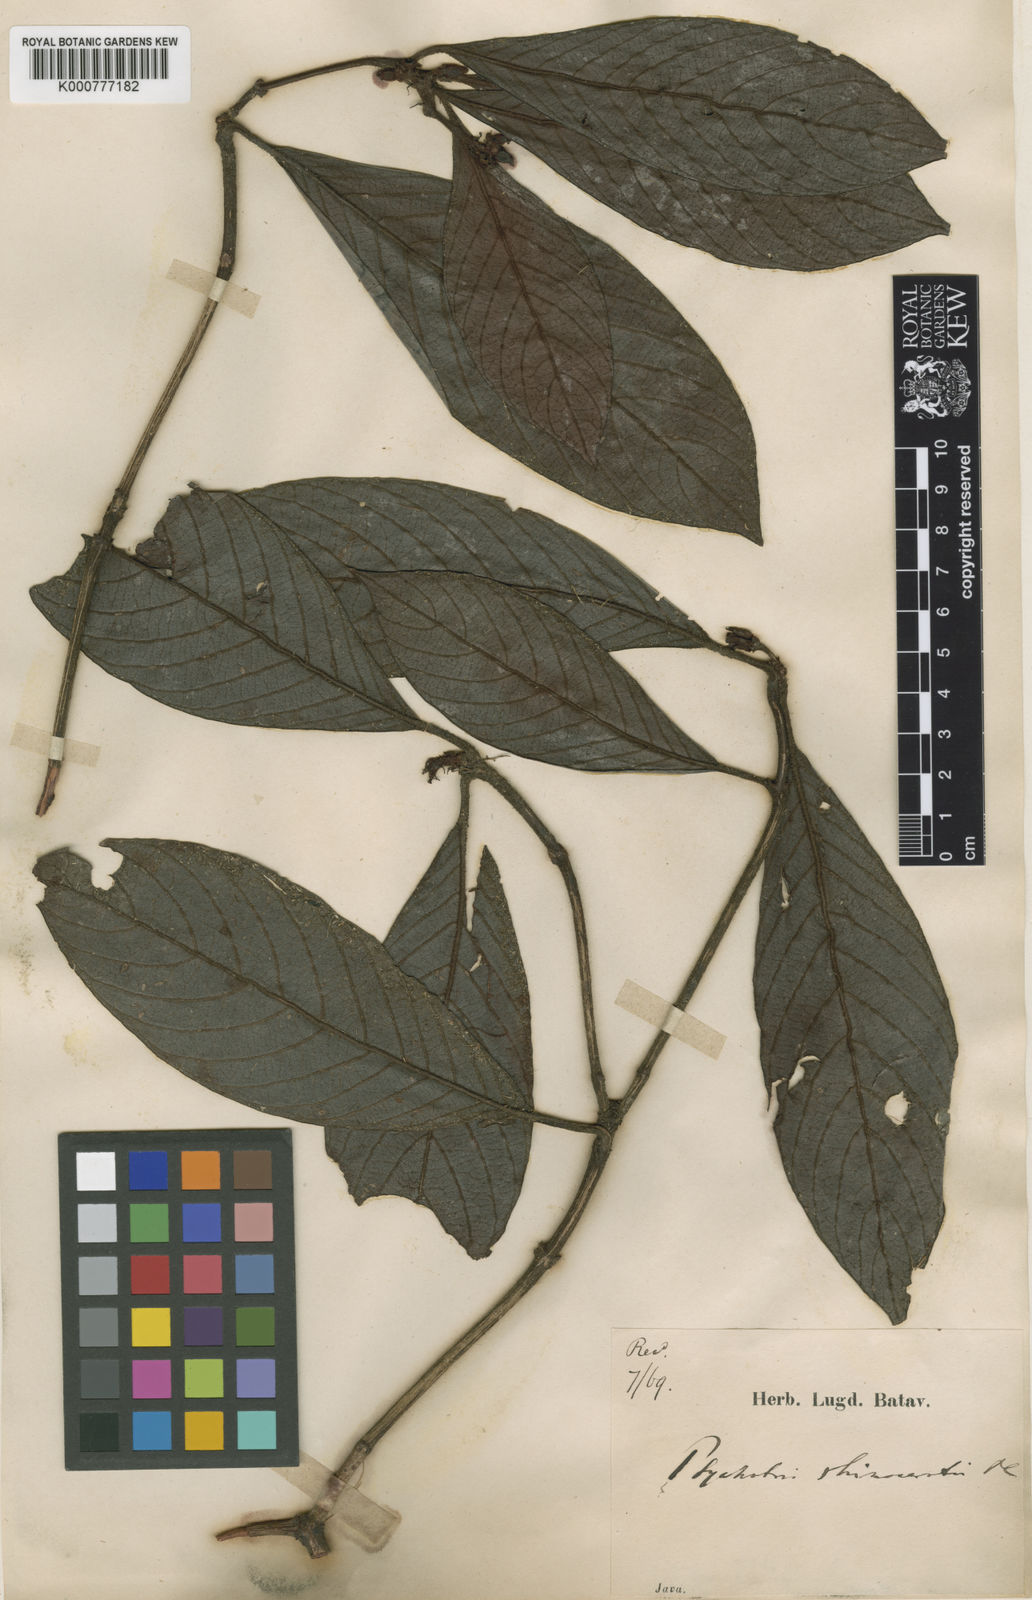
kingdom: Plantae
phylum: Tracheophyta
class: Magnoliopsida
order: Gentianales
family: Rubiaceae
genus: Psychotria
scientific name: Psychotria rhinocerotis
